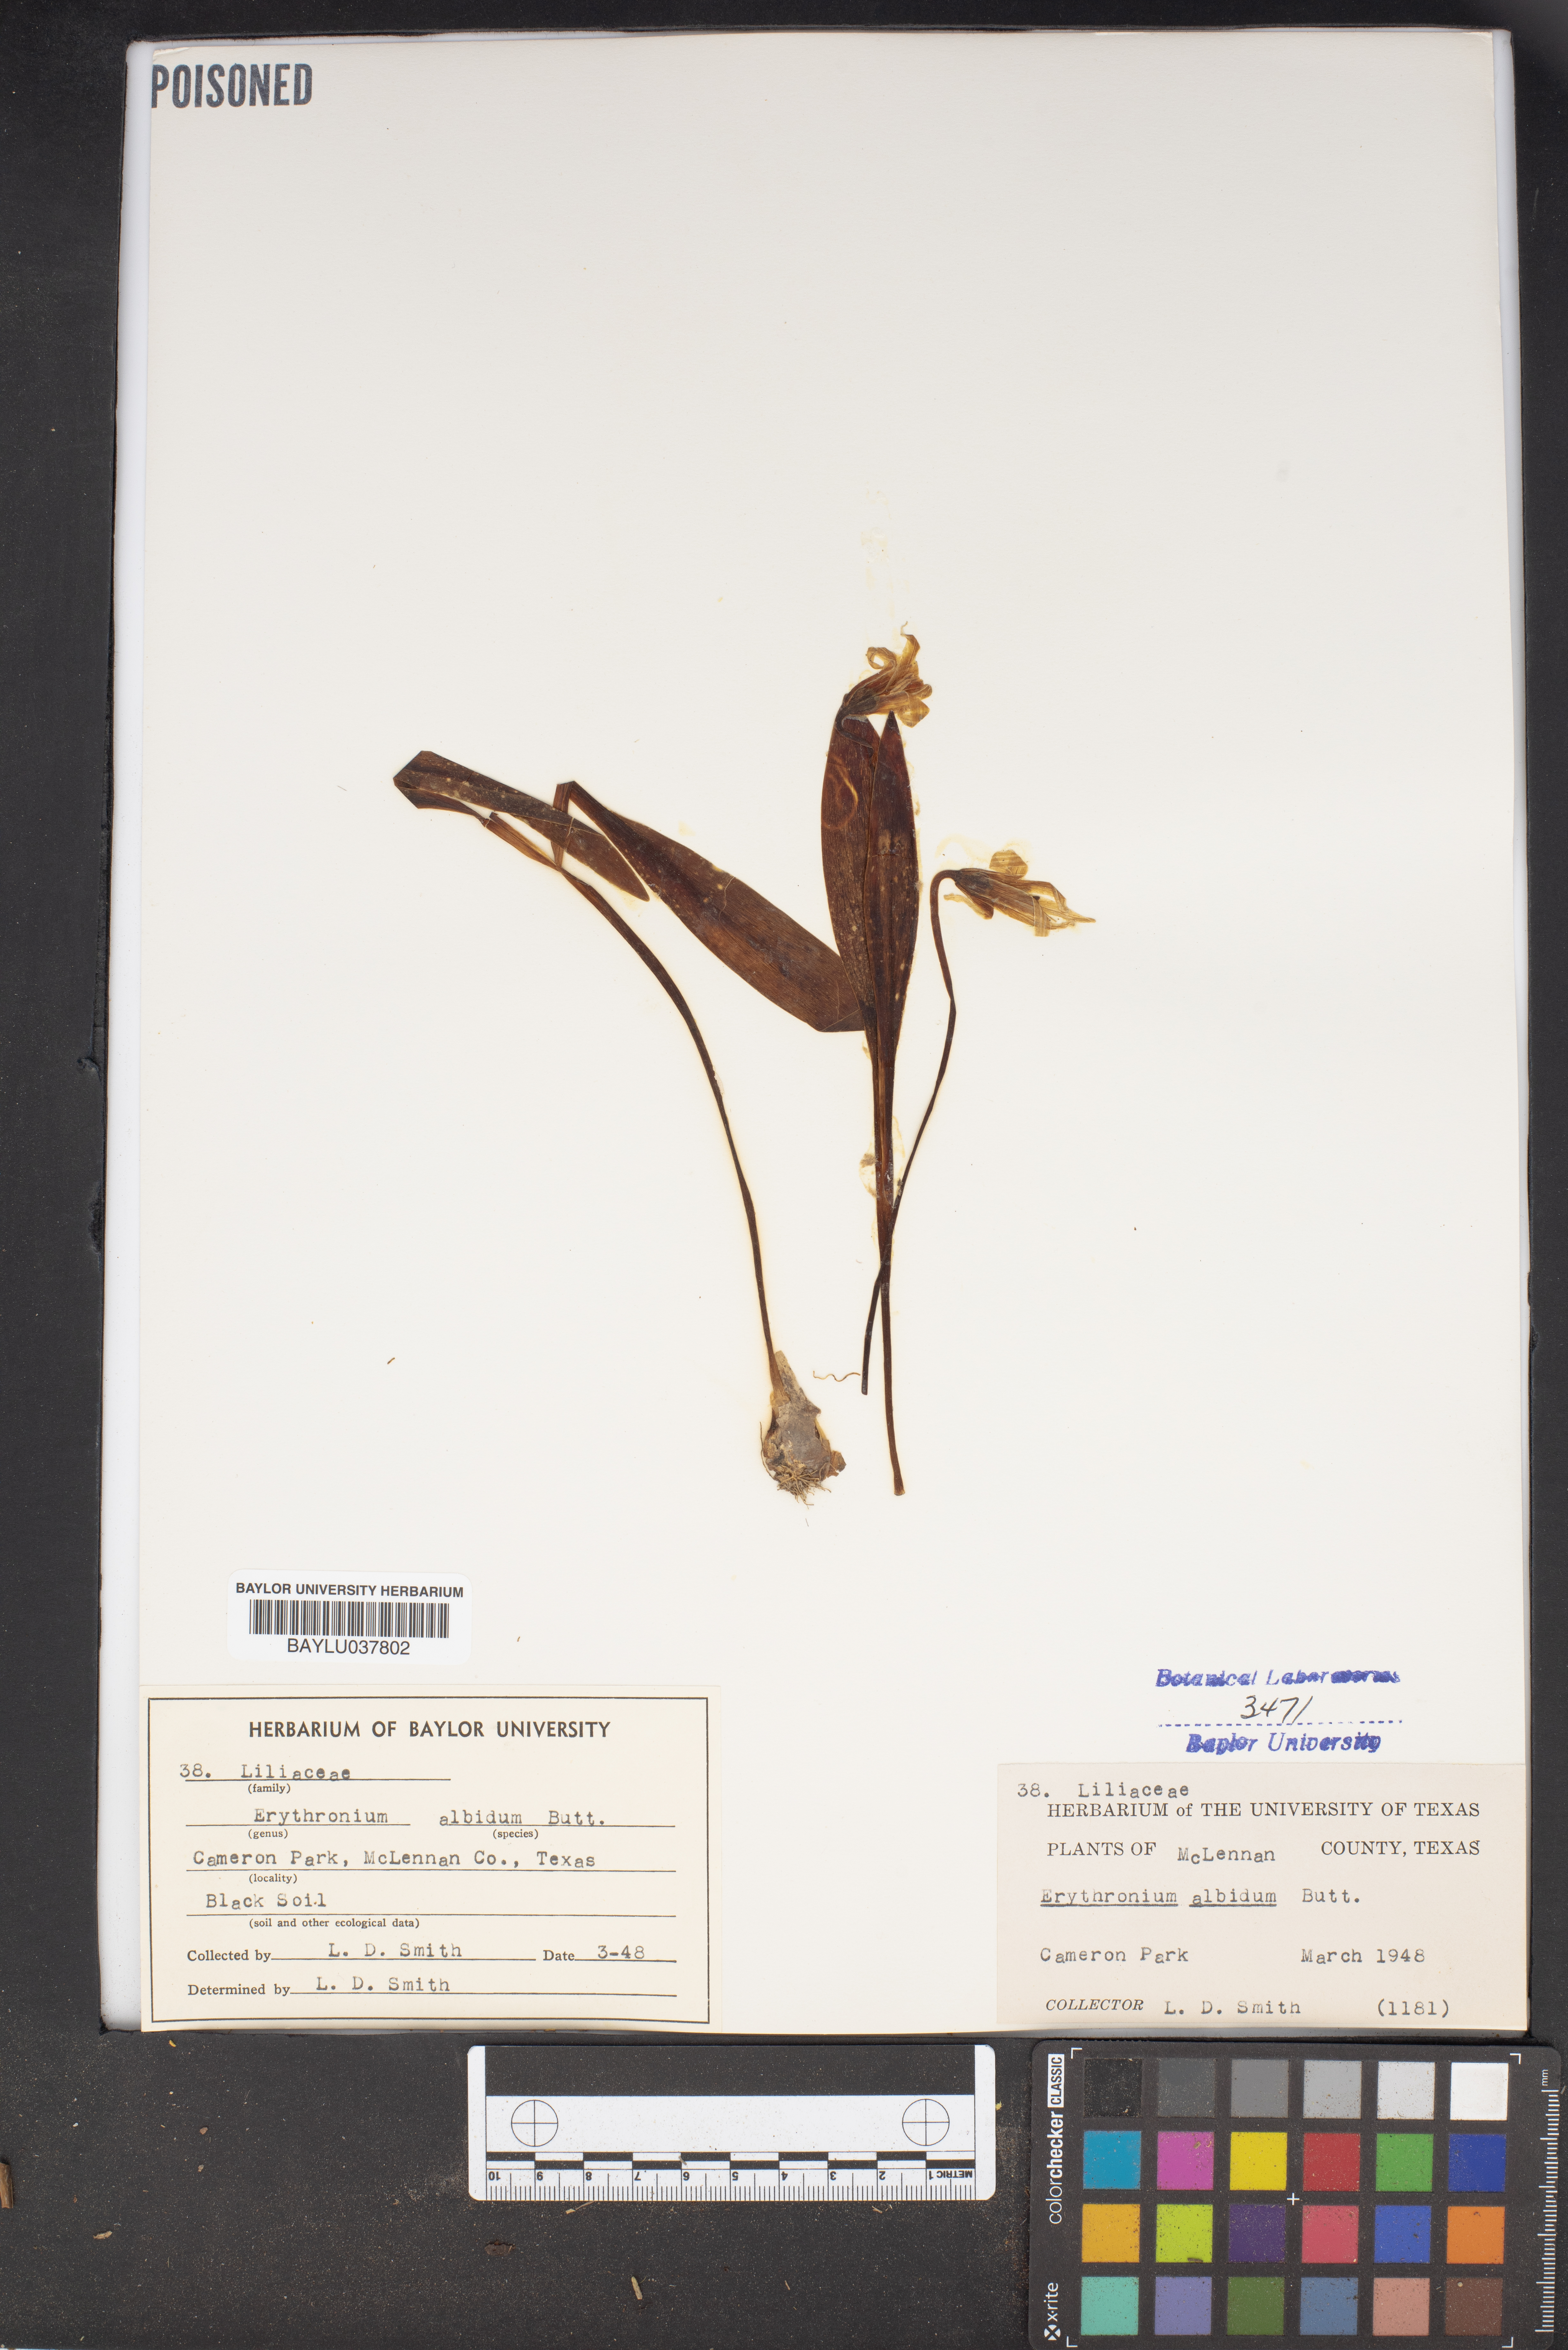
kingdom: Plantae
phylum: Tracheophyta
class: Liliopsida
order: Liliales
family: Liliaceae
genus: Erythronium
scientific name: Erythronium albidum
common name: White trout-lily
